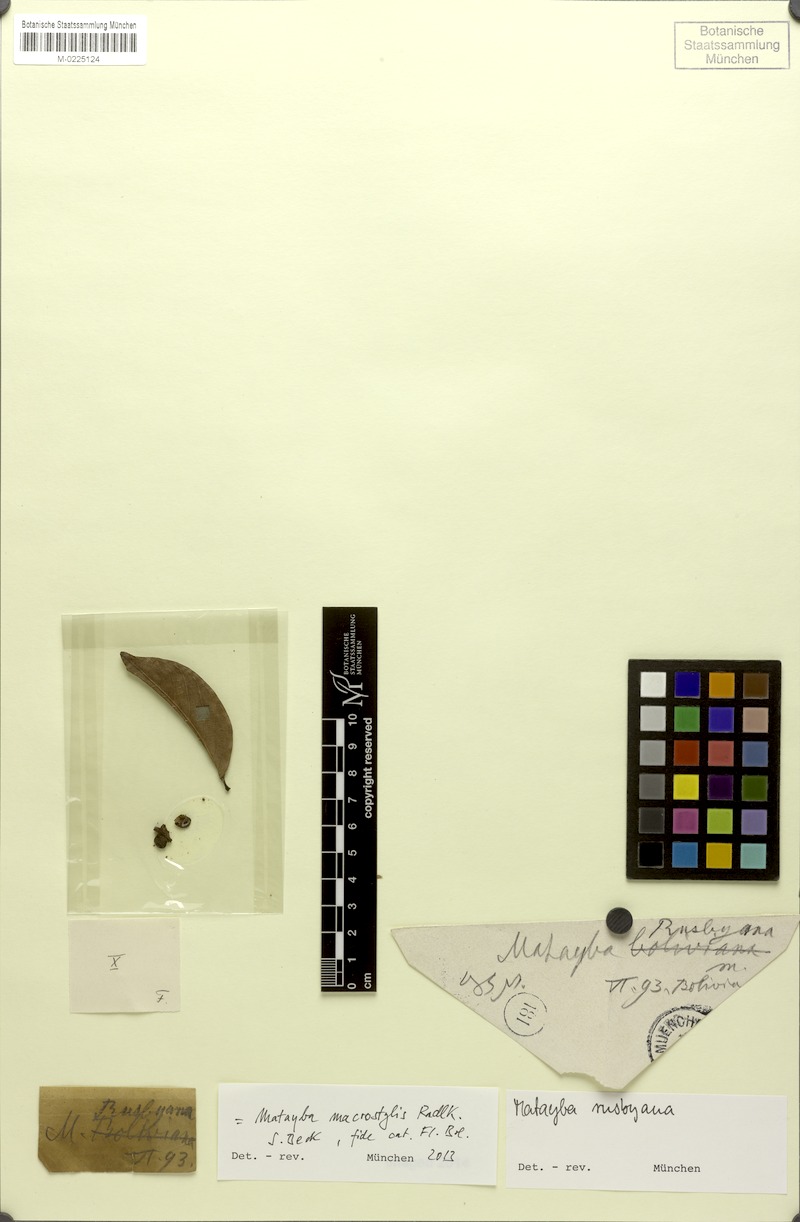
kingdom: Plantae
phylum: Tracheophyta
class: Magnoliopsida
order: Sapindales
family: Sapindaceae
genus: Cupania
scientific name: Cupania macrostylis
